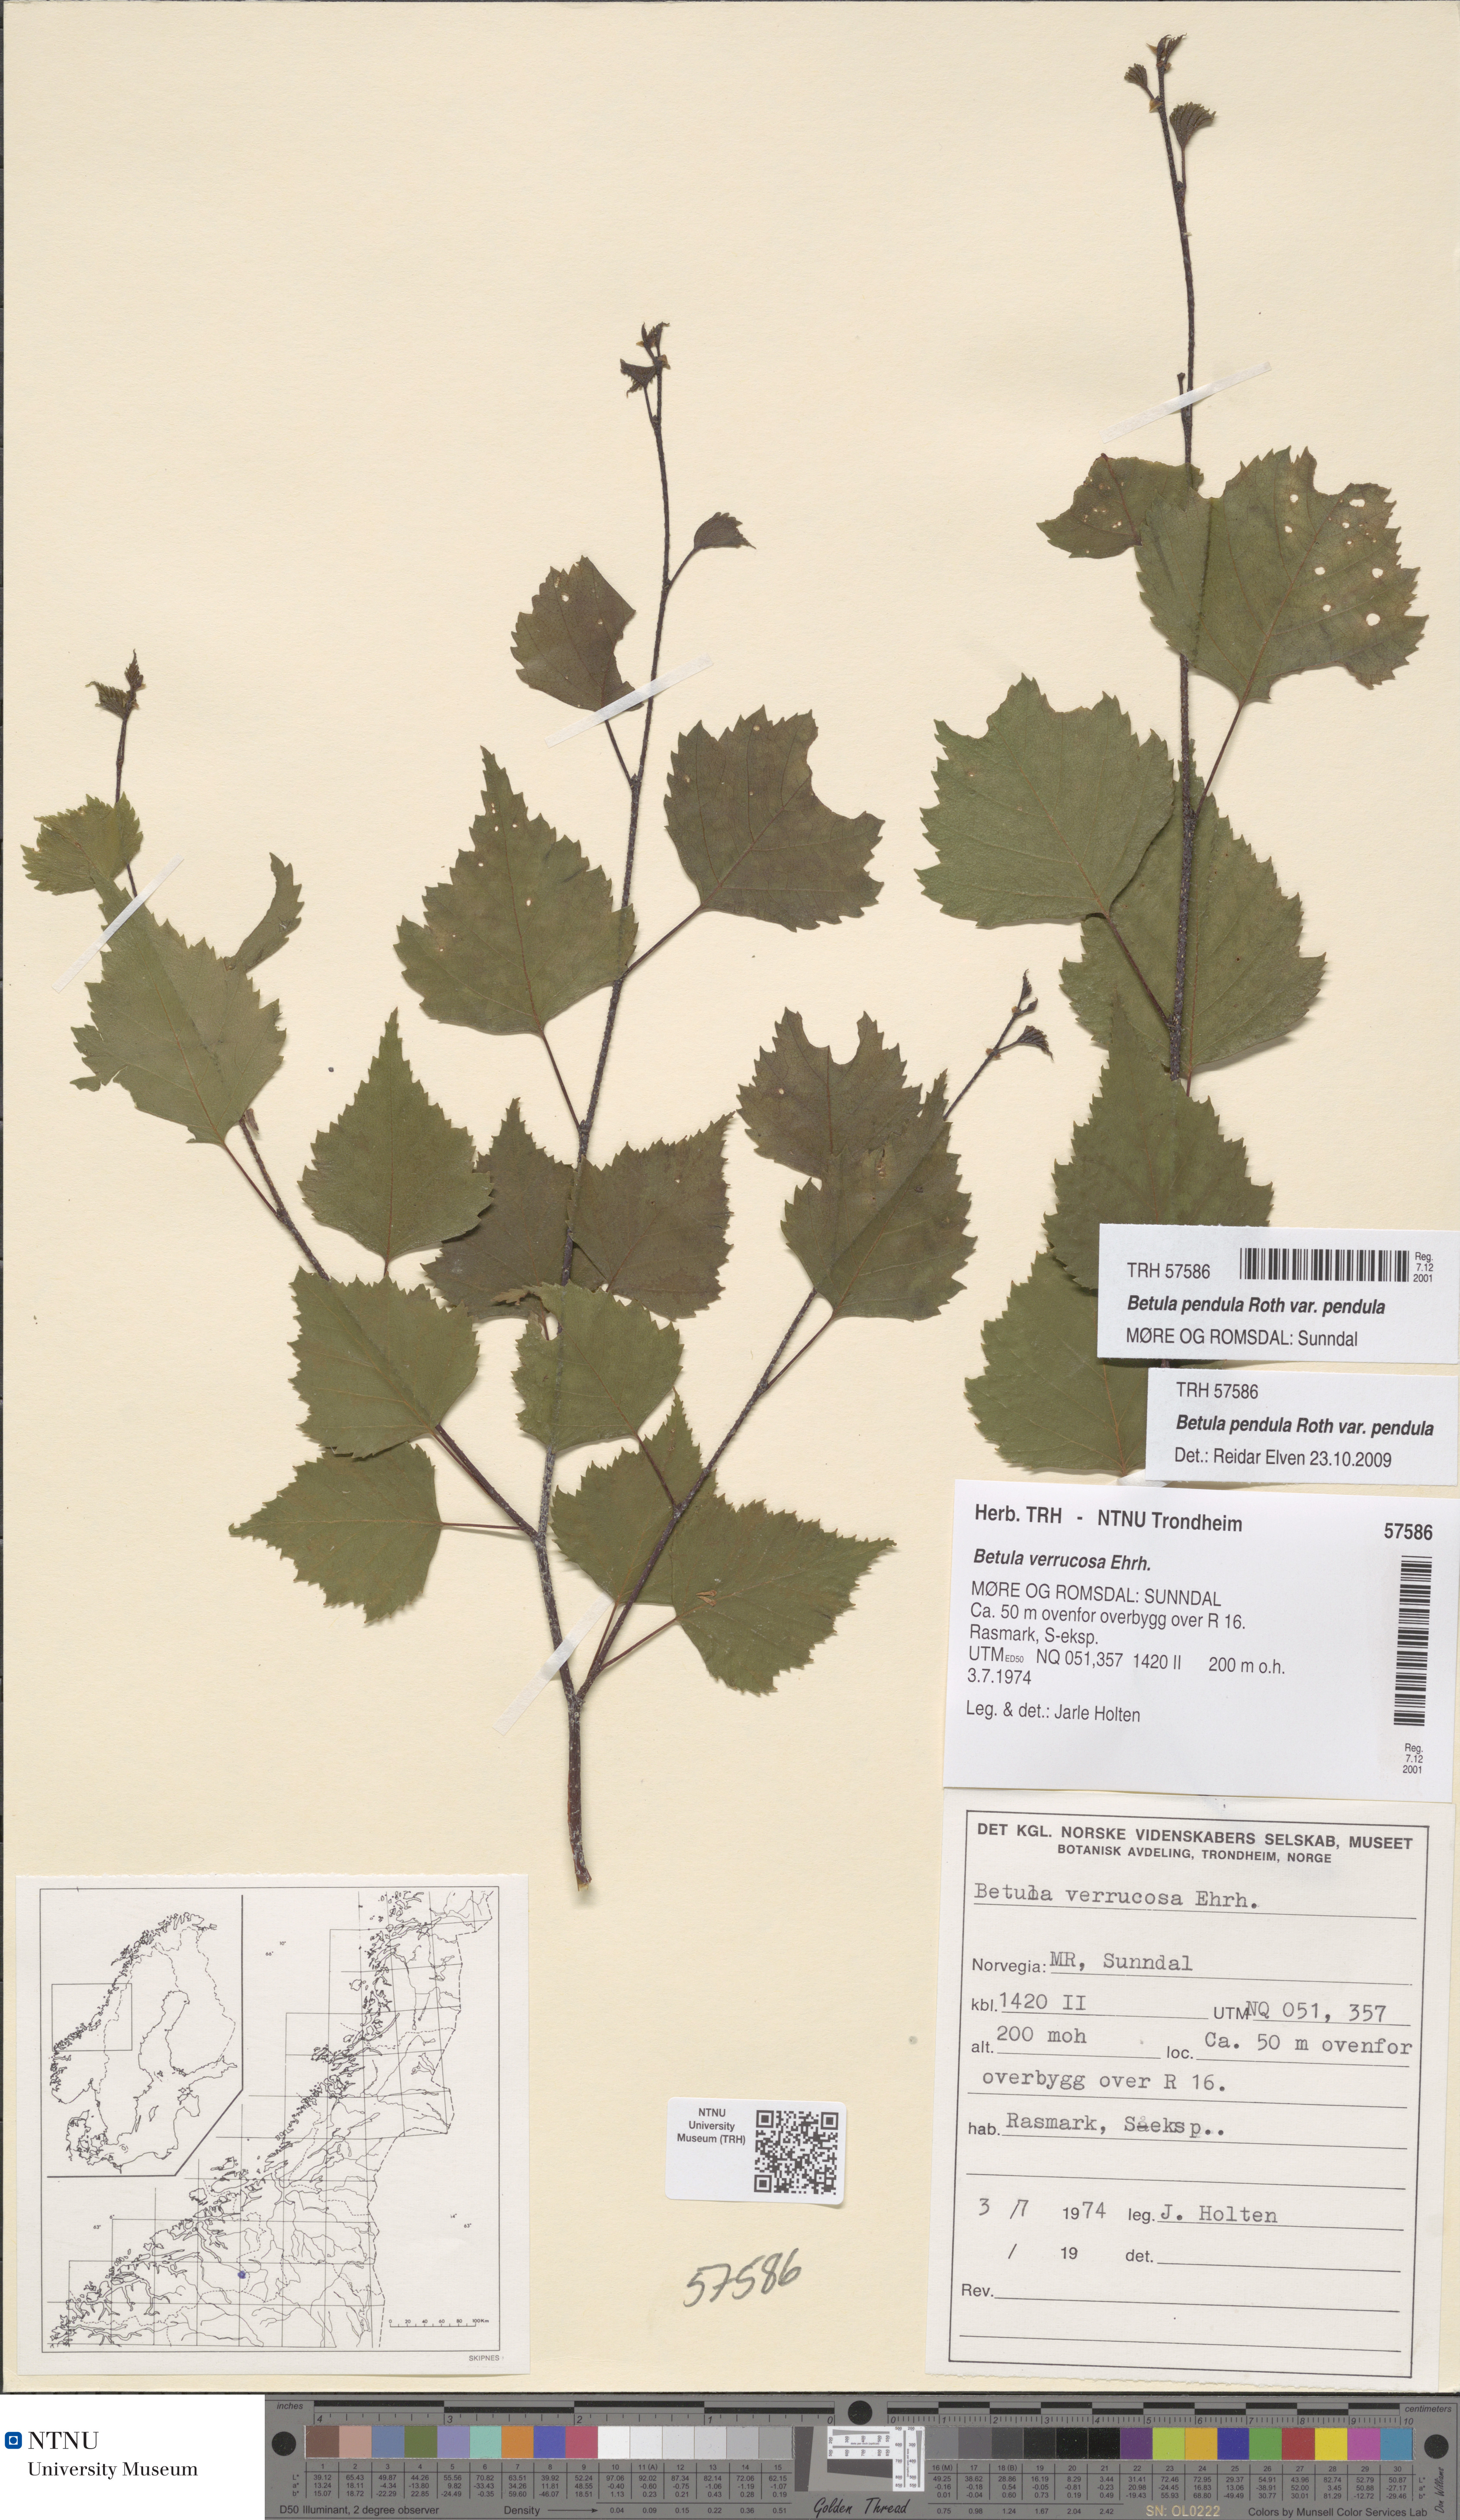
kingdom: Plantae
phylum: Tracheophyta
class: Magnoliopsida
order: Fagales
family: Betulaceae
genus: Betula
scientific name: Betula pendula
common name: Silver birch
